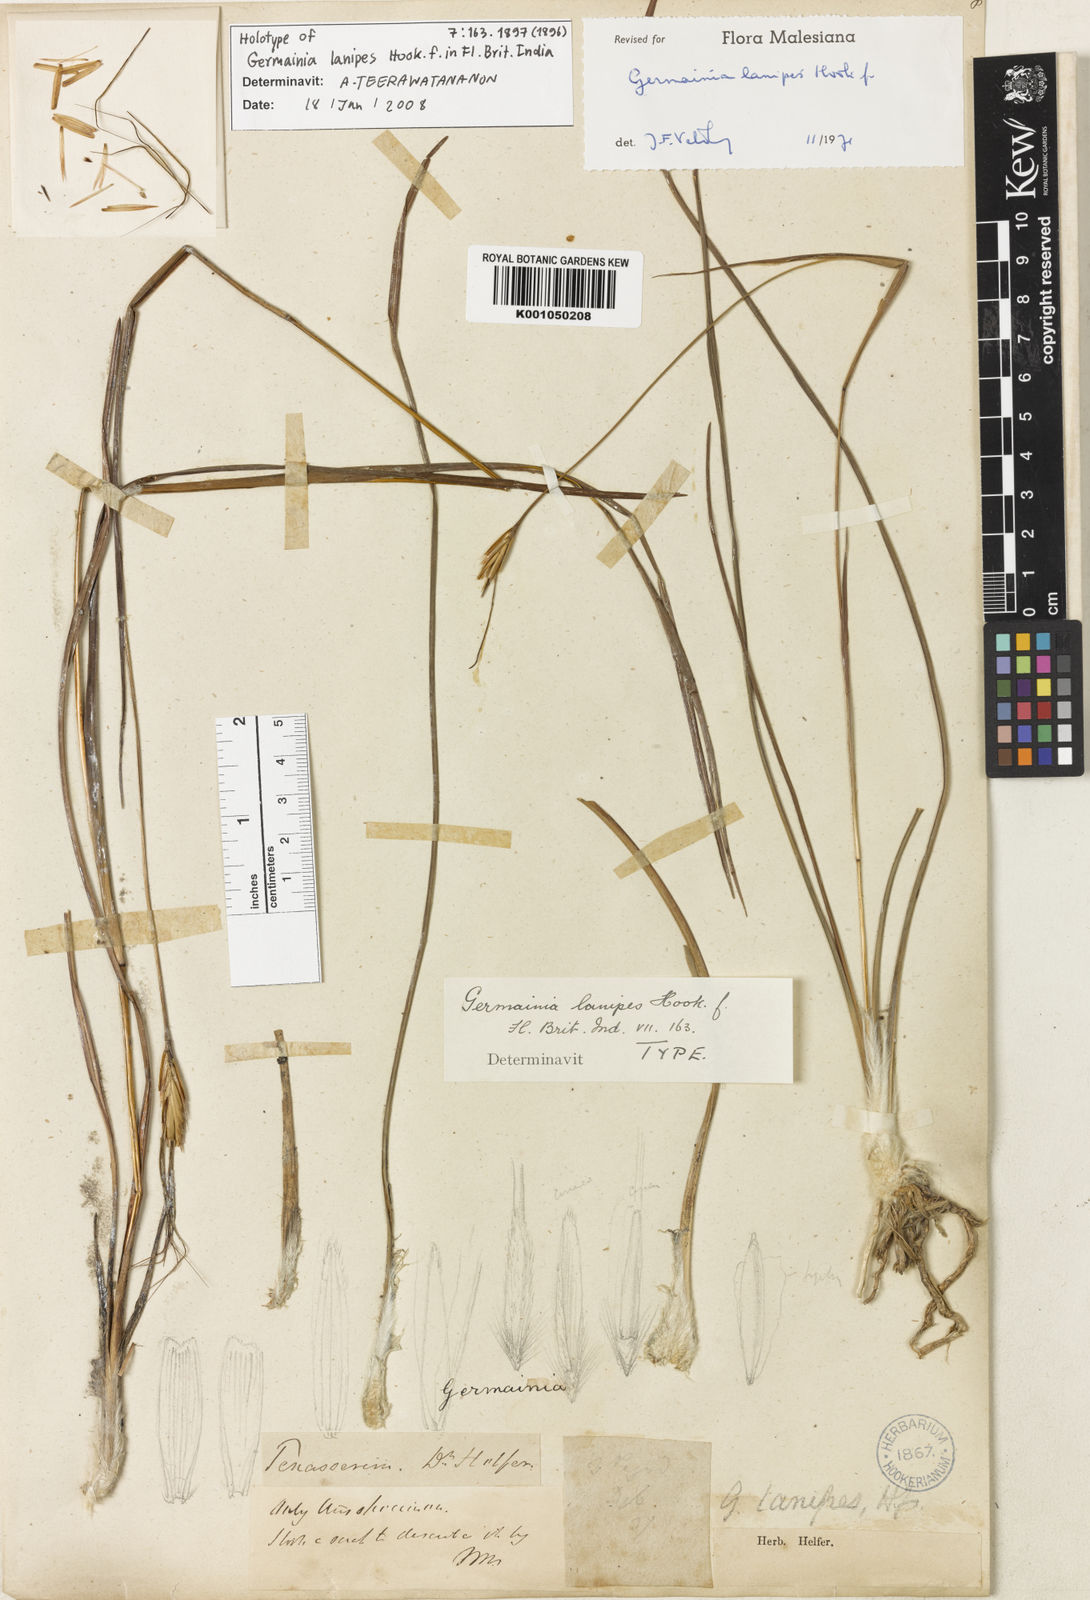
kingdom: Plantae
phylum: Tracheophyta
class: Liliopsida
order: Poales
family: Poaceae
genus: Germainia
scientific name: Germainia lanipes
